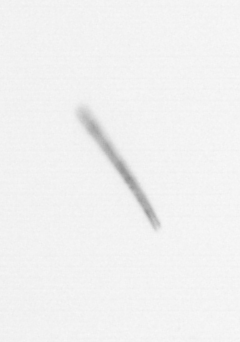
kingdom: Chromista
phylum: Ochrophyta
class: Bacillariophyceae
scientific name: Bacillariophyceae
